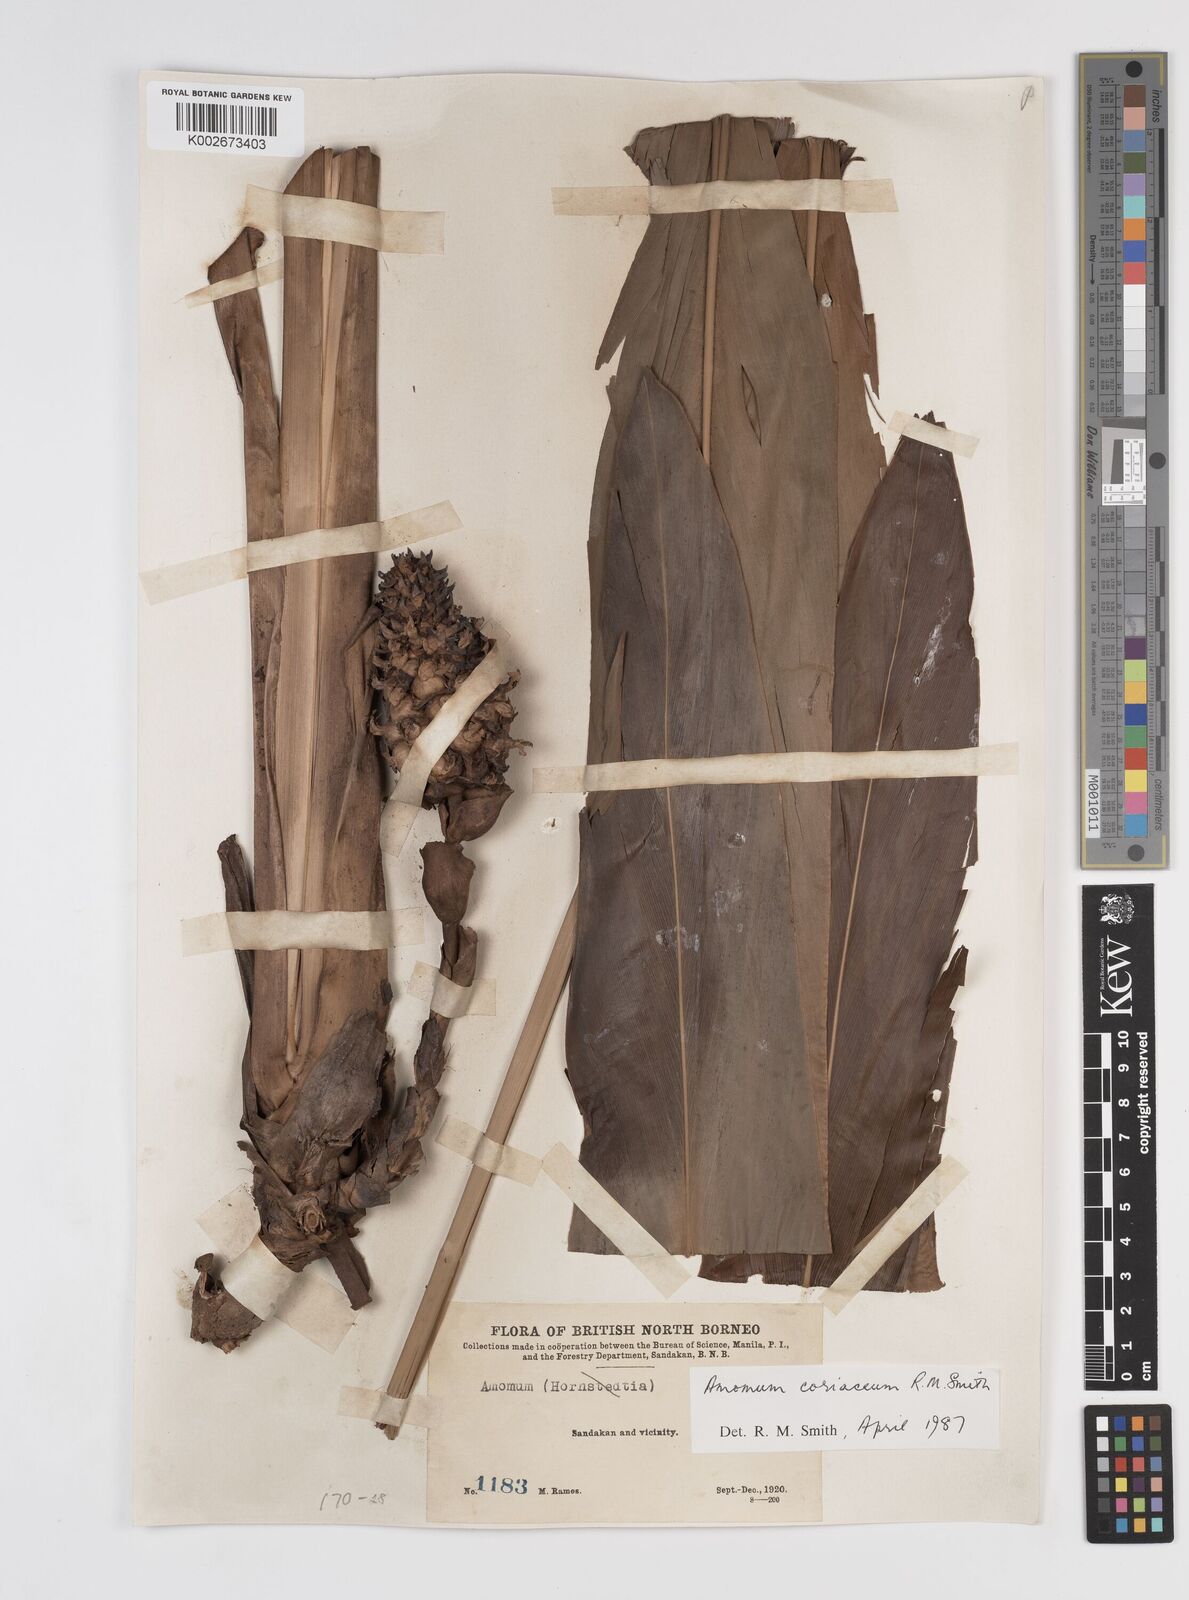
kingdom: Plantae
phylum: Tracheophyta
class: Liliopsida
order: Zingiberales
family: Zingiberaceae
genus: Conamomum
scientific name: Conamomum cylindrostachys
